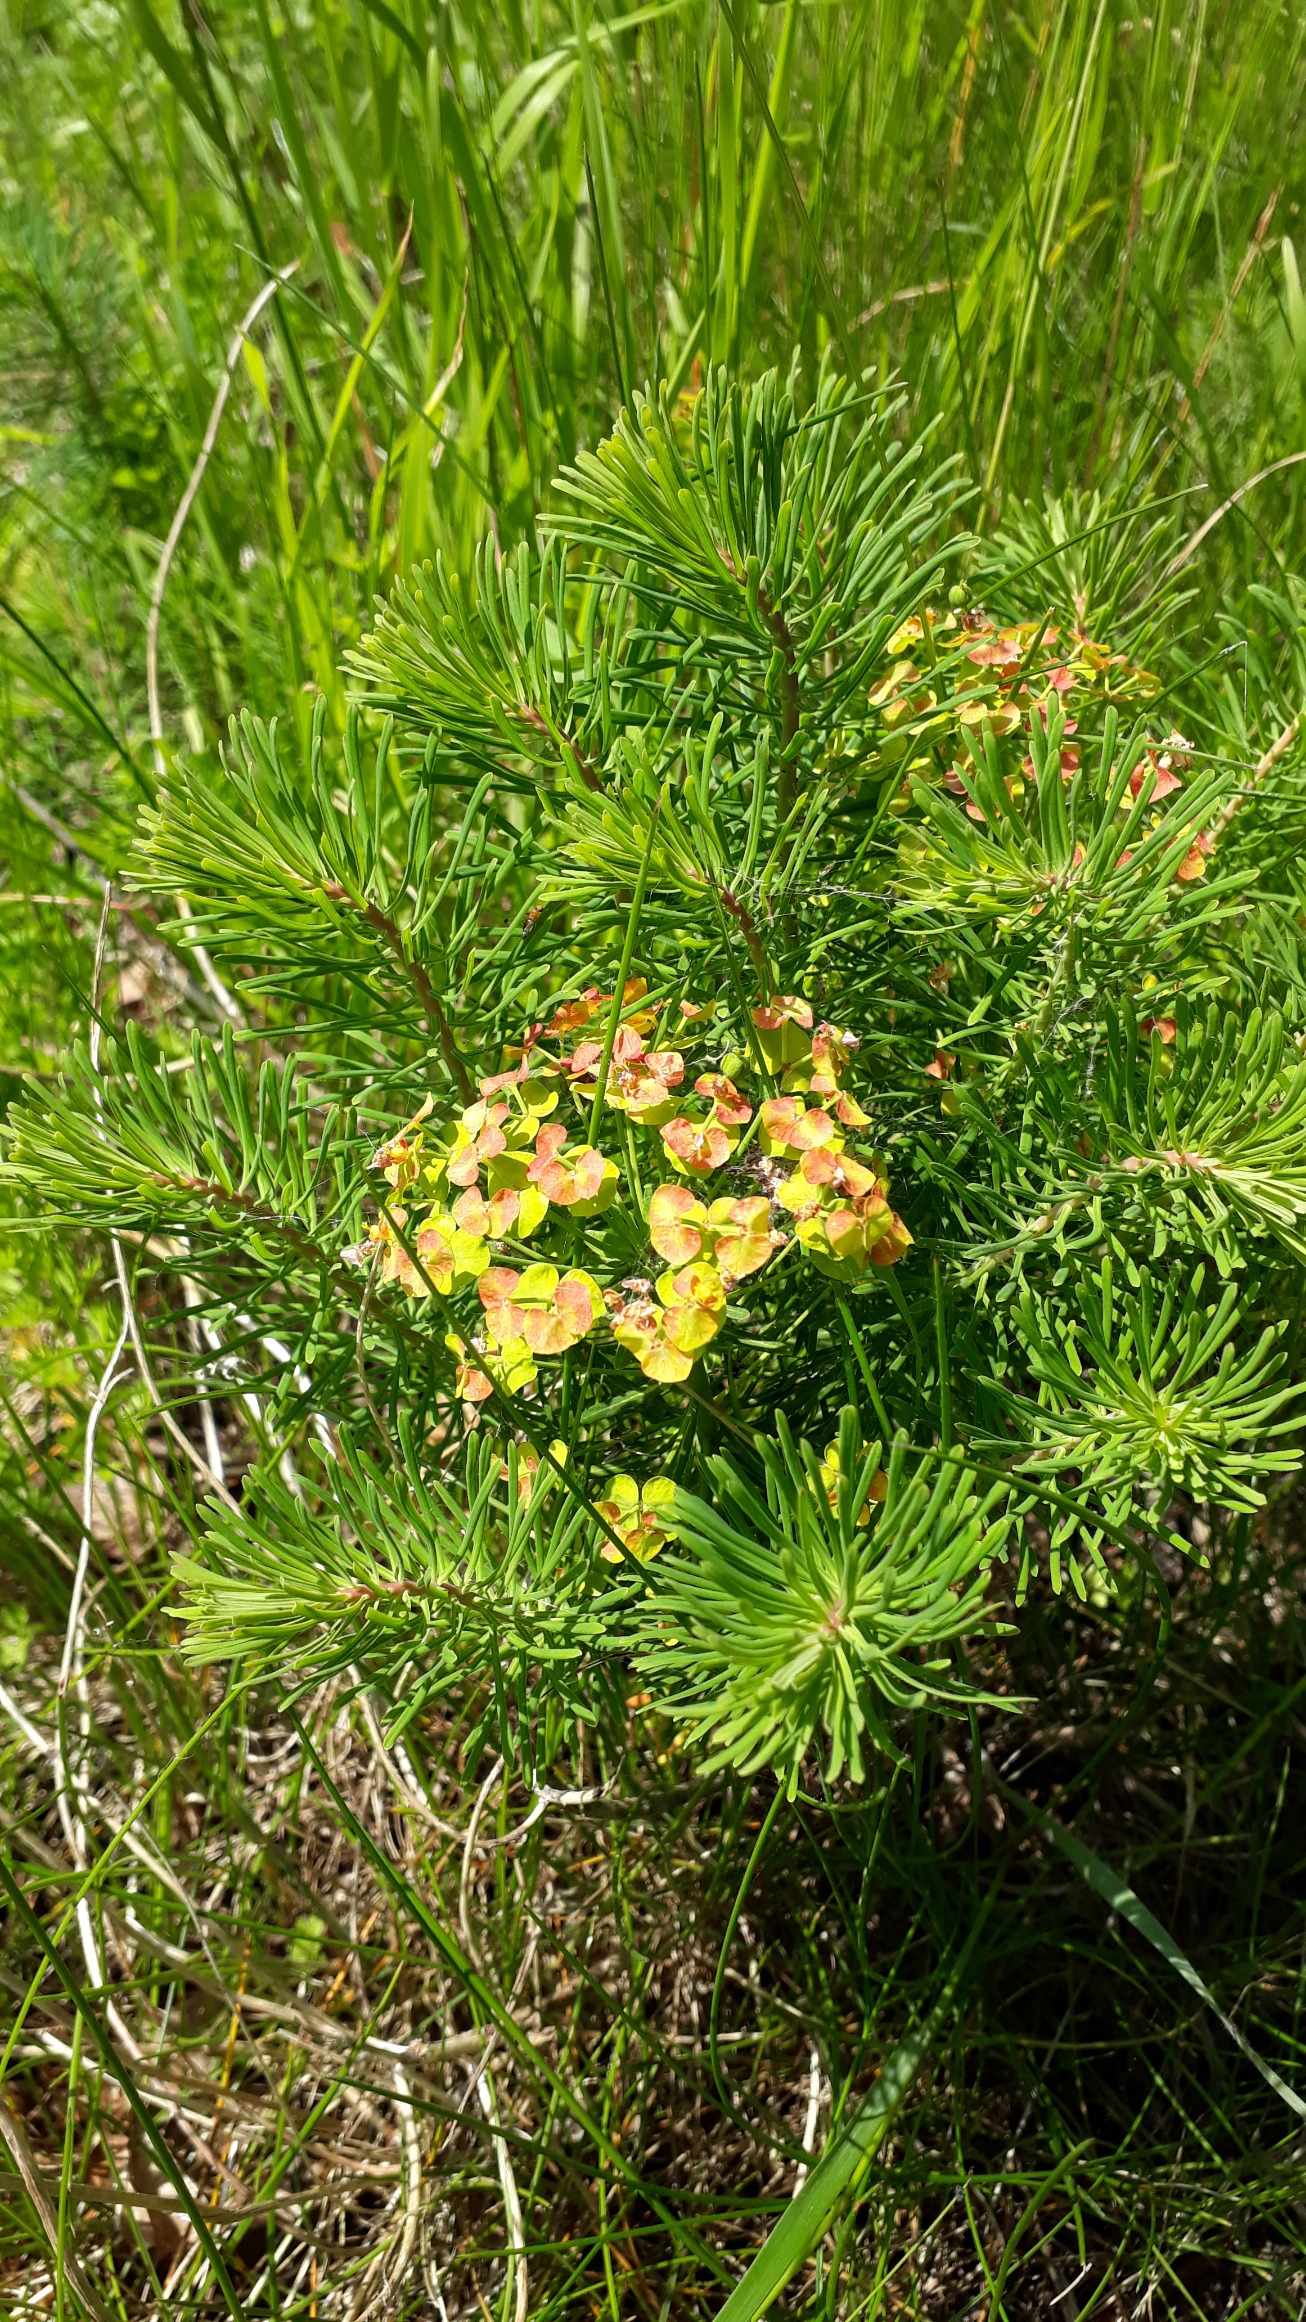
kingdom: Plantae
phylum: Tracheophyta
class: Magnoliopsida
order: Malpighiales
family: Euphorbiaceae
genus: Euphorbia
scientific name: Euphorbia cyparissias
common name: Cypres-vortemælk
